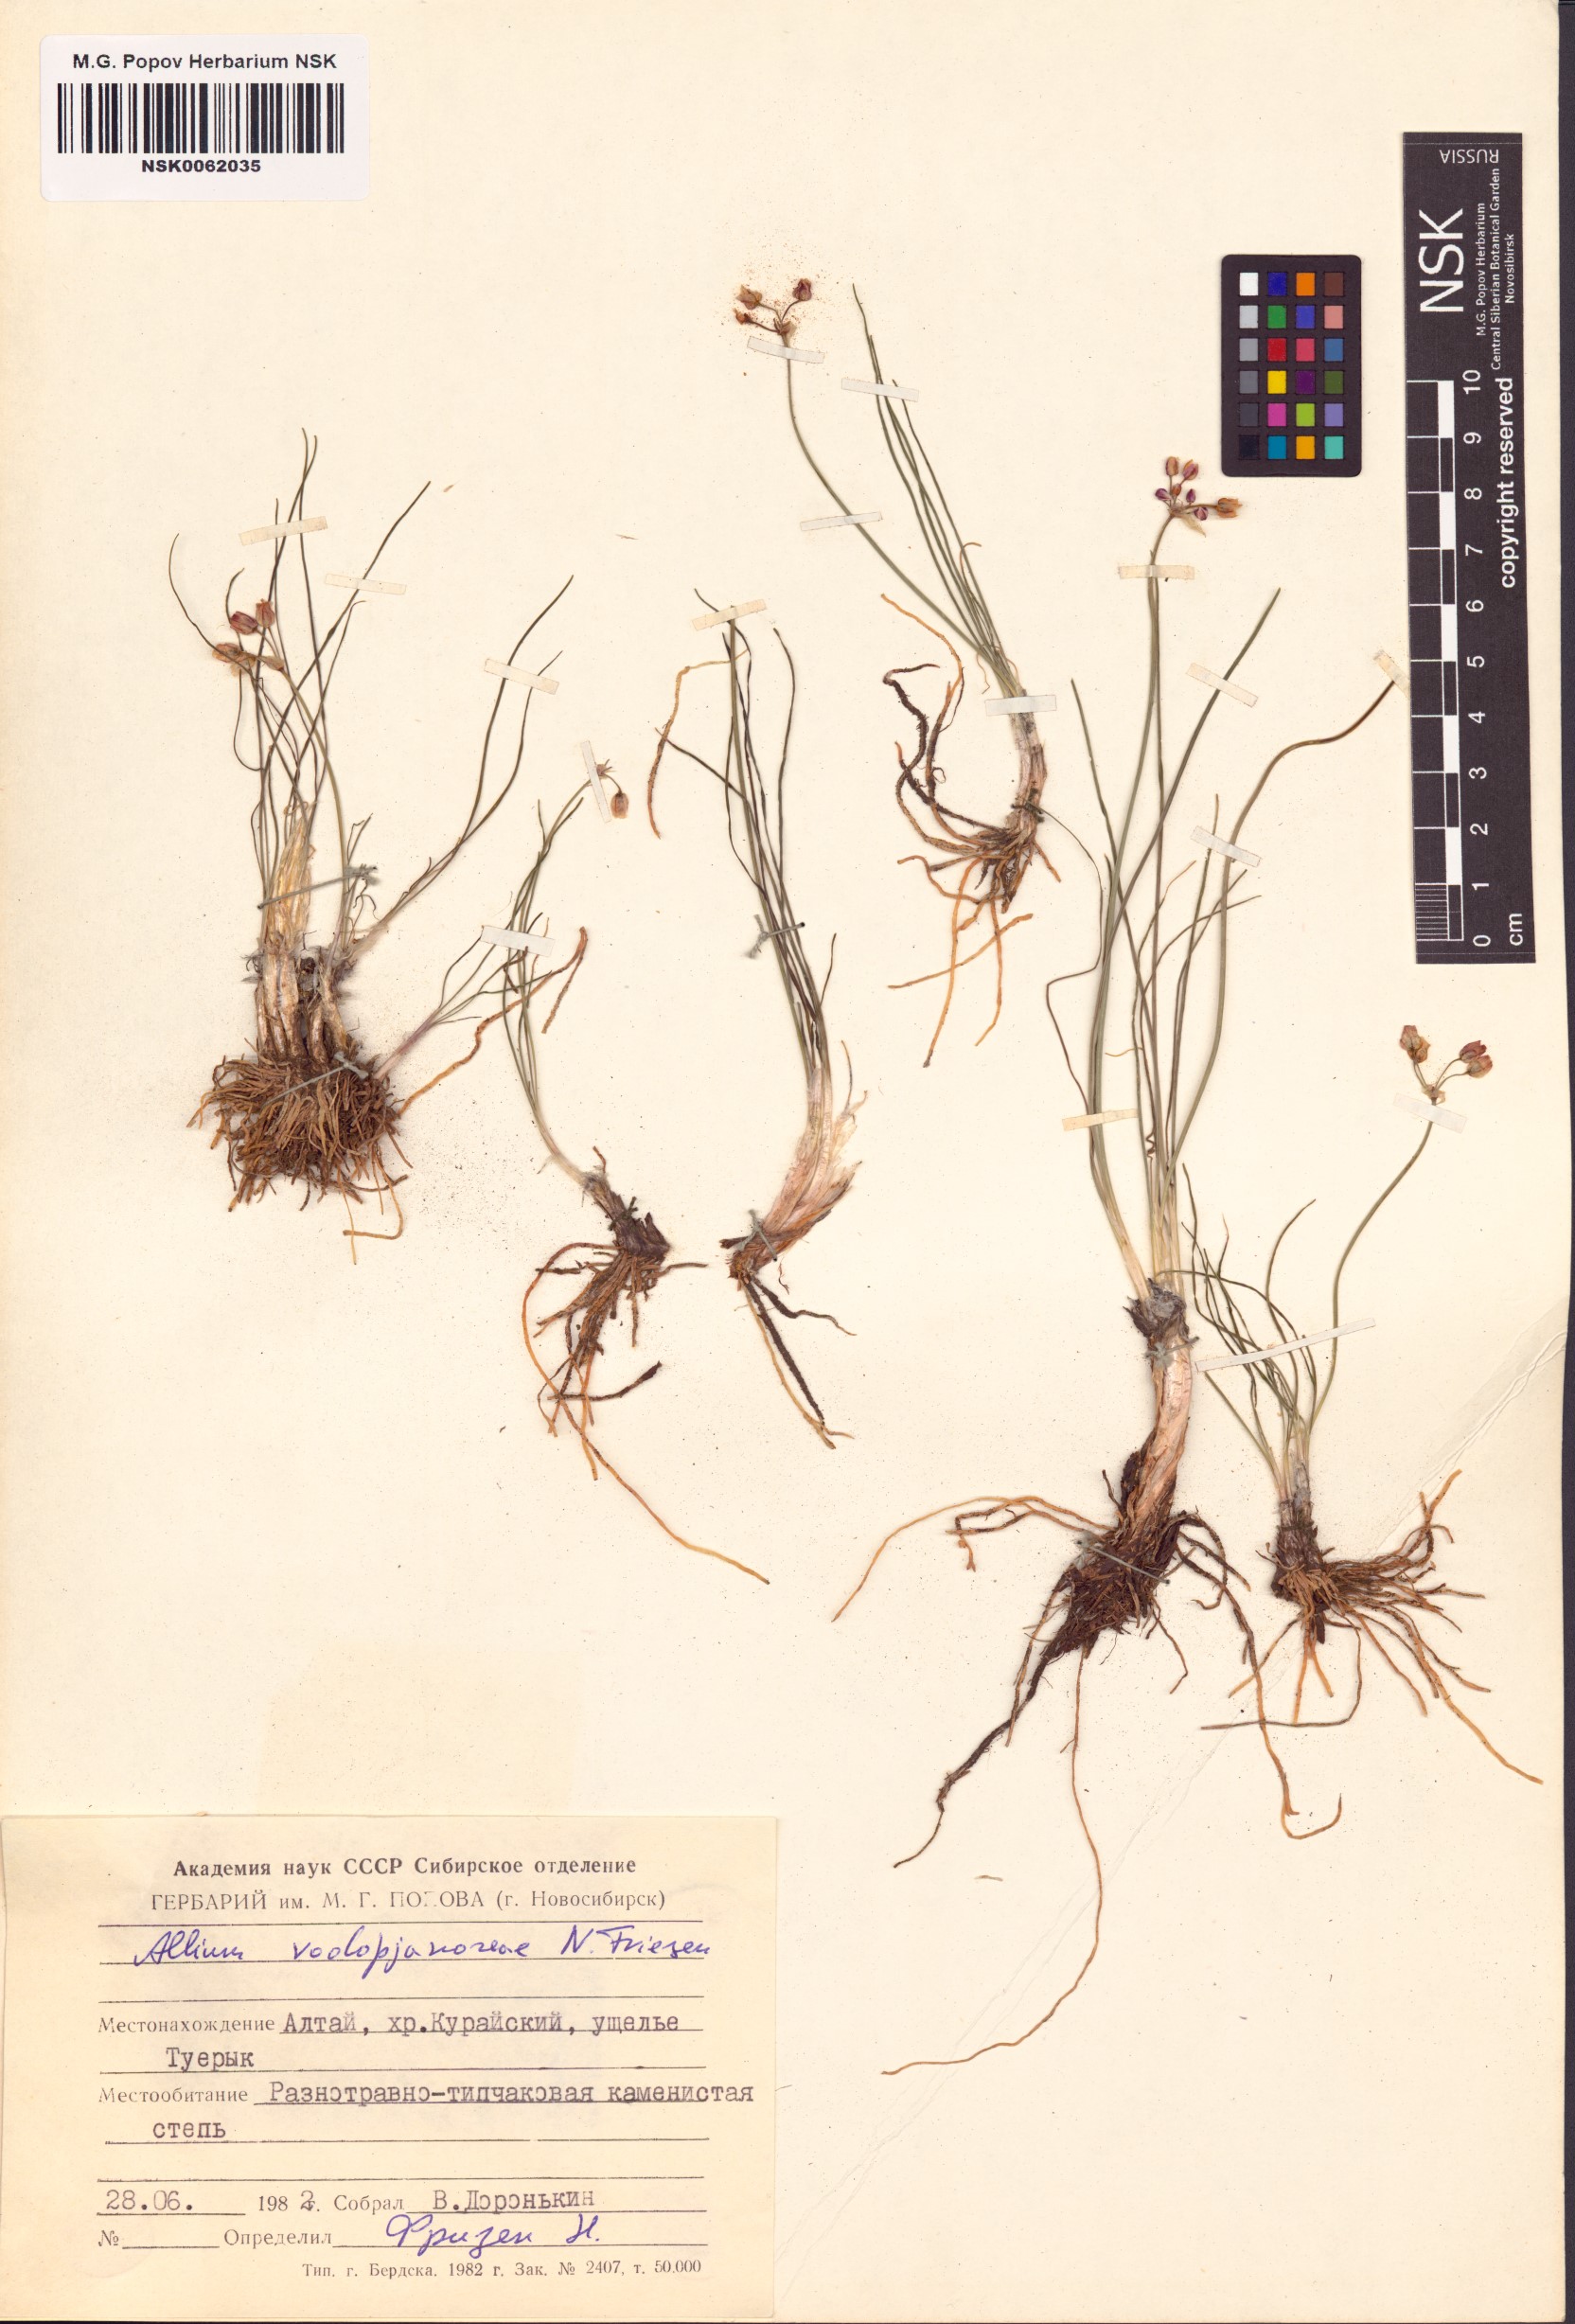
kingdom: Plantae
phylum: Tracheophyta
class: Liliopsida
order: Asparagales
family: Amaryllidaceae
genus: Allium
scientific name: Allium vodopjanovae
